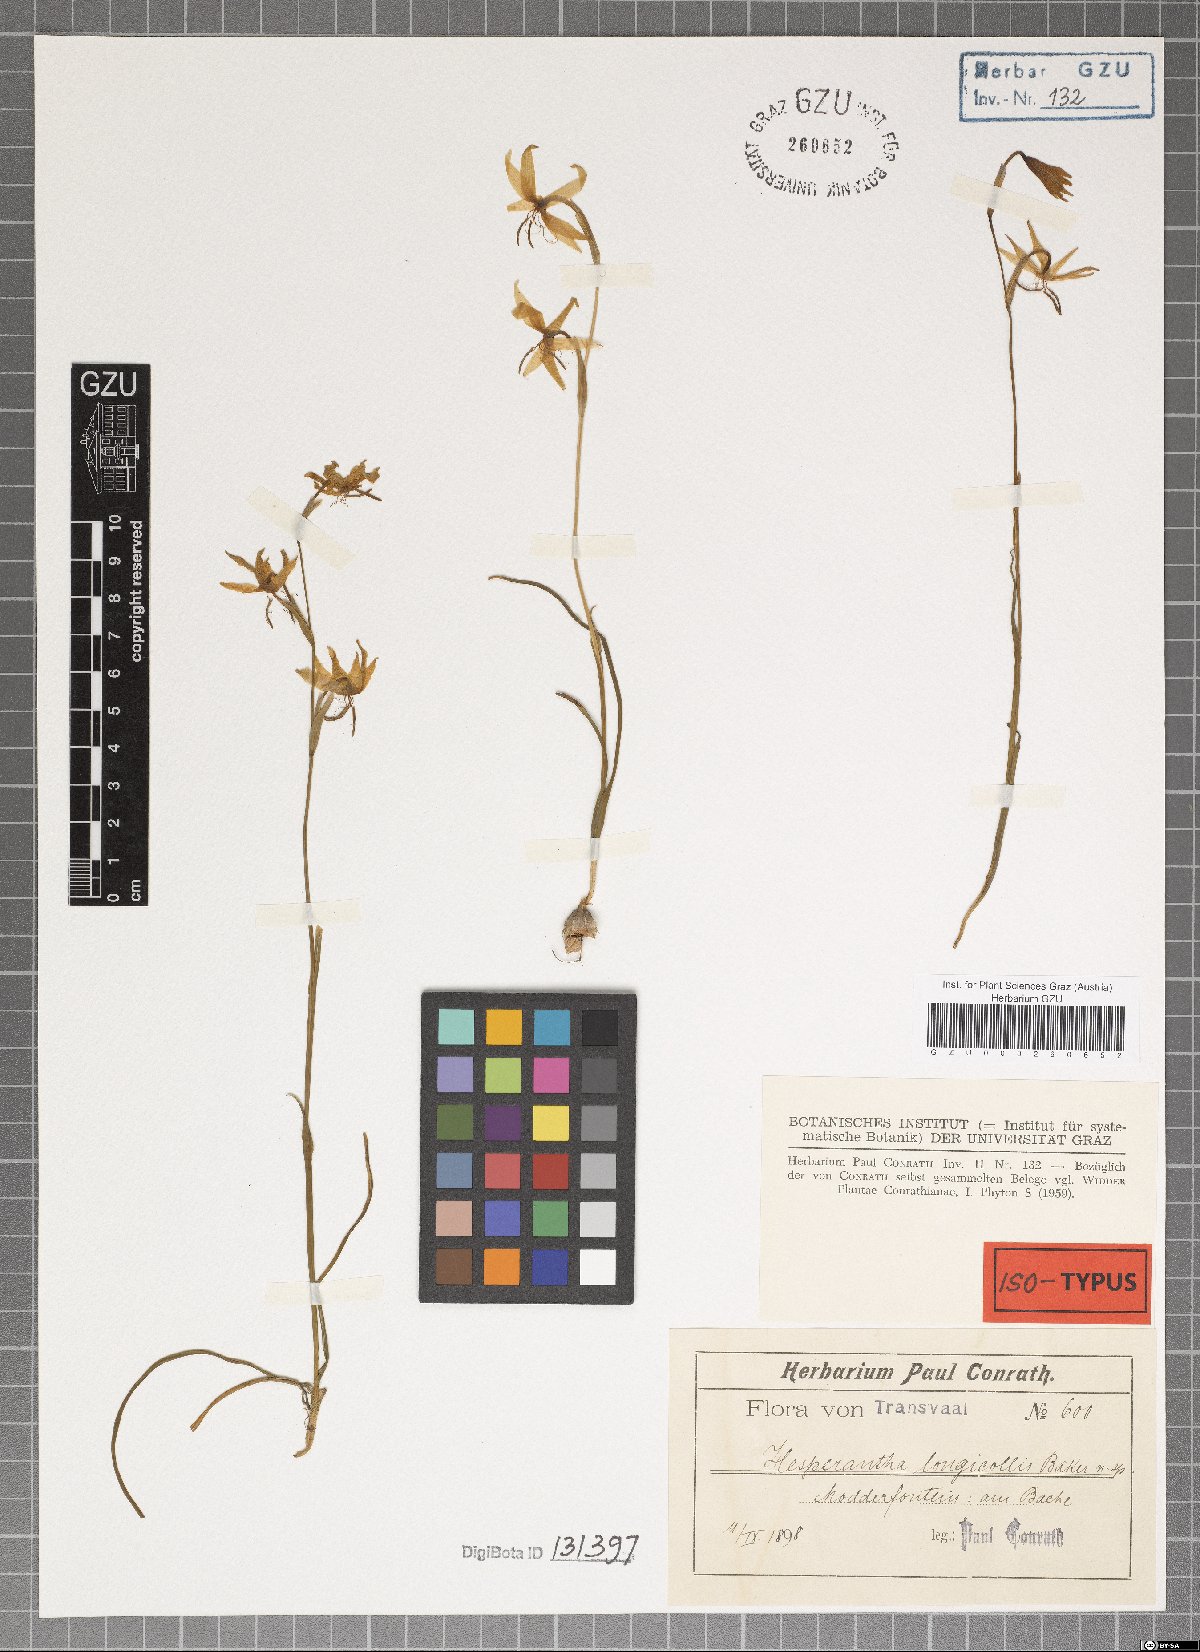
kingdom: Plantae
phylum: Tracheophyta
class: Liliopsida
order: Asparagales
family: Iridaceae
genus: Hesperantha
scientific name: Hesperantha longicollis
